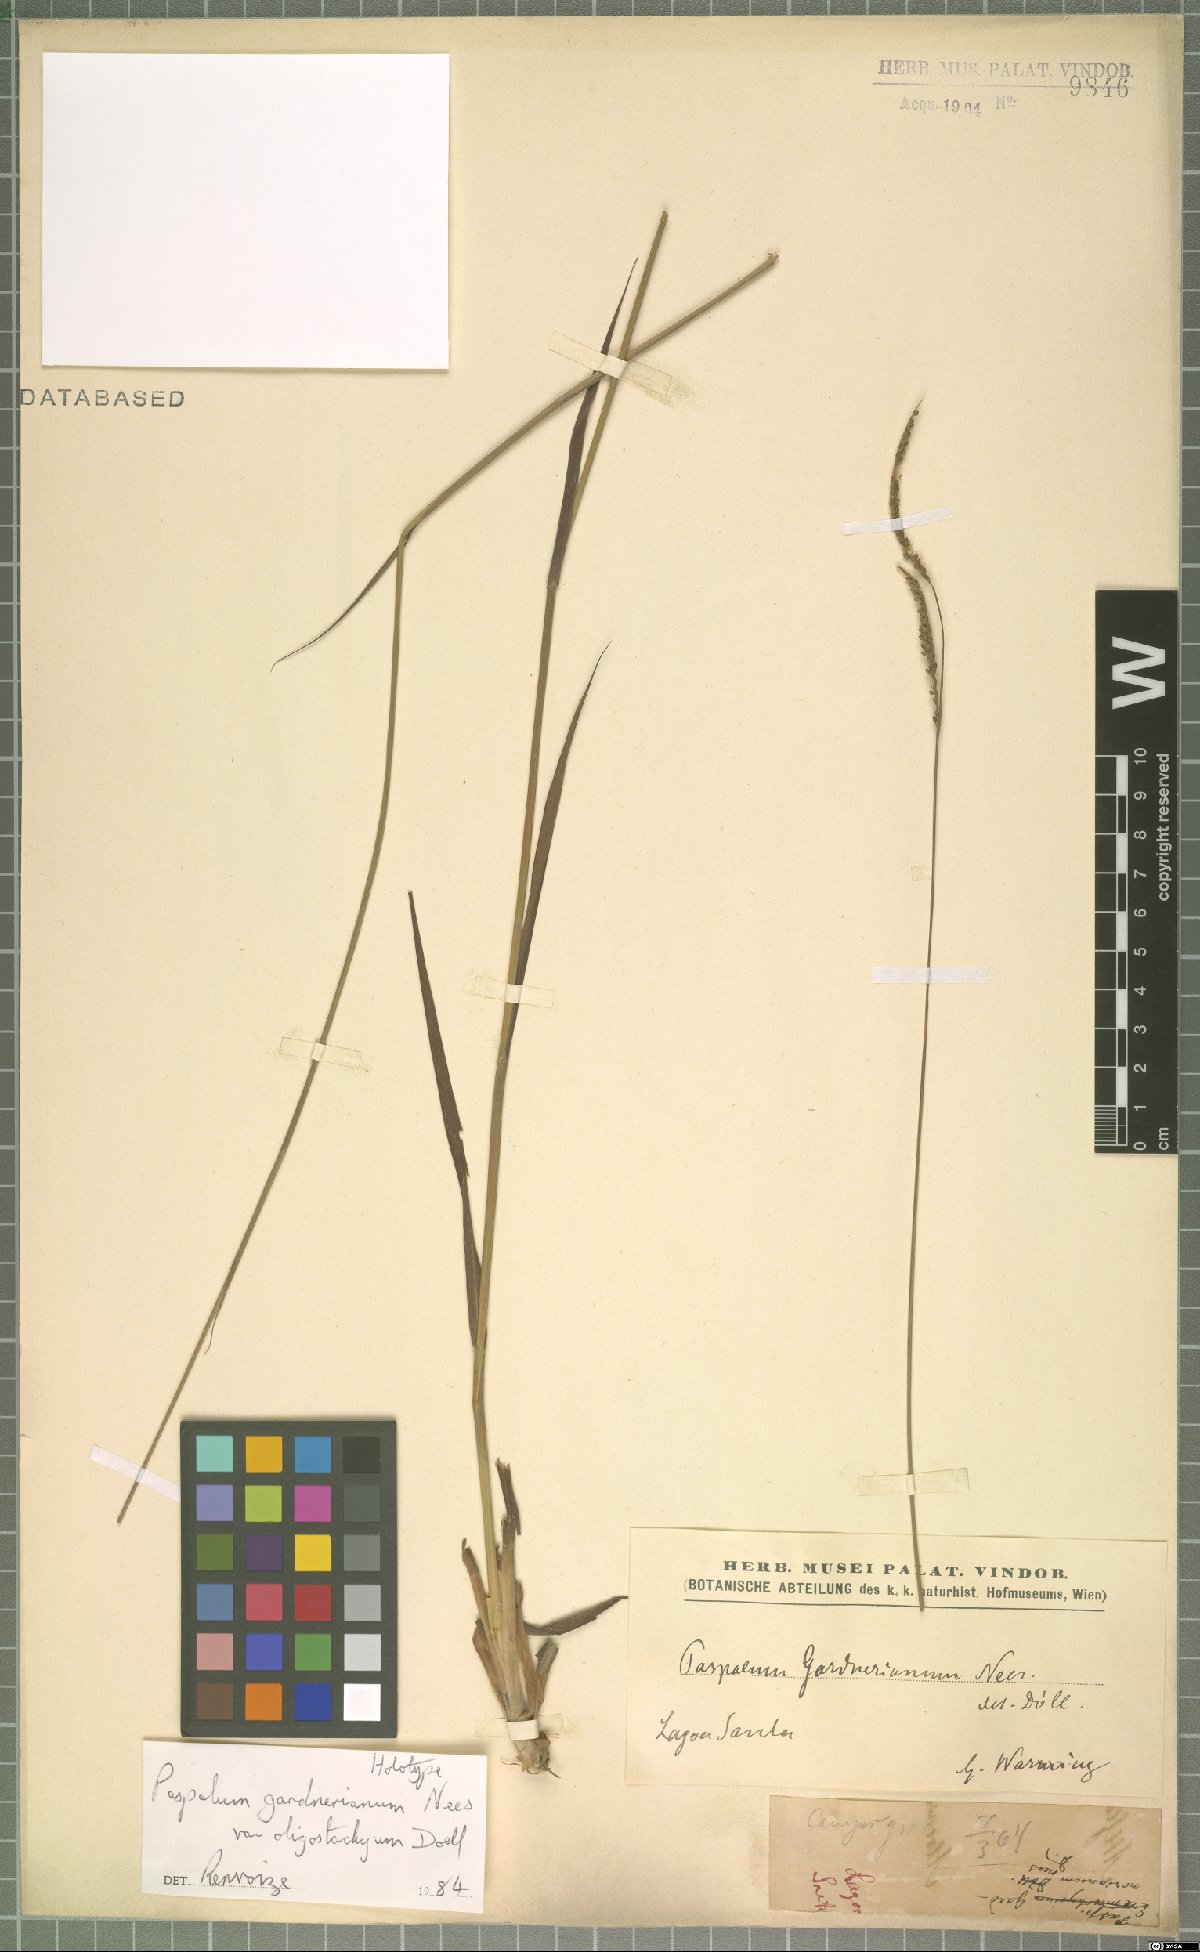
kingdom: Plantae
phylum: Tracheophyta
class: Liliopsida
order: Poales
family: Poaceae
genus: Paspalum
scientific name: Paspalum gardnerianum
